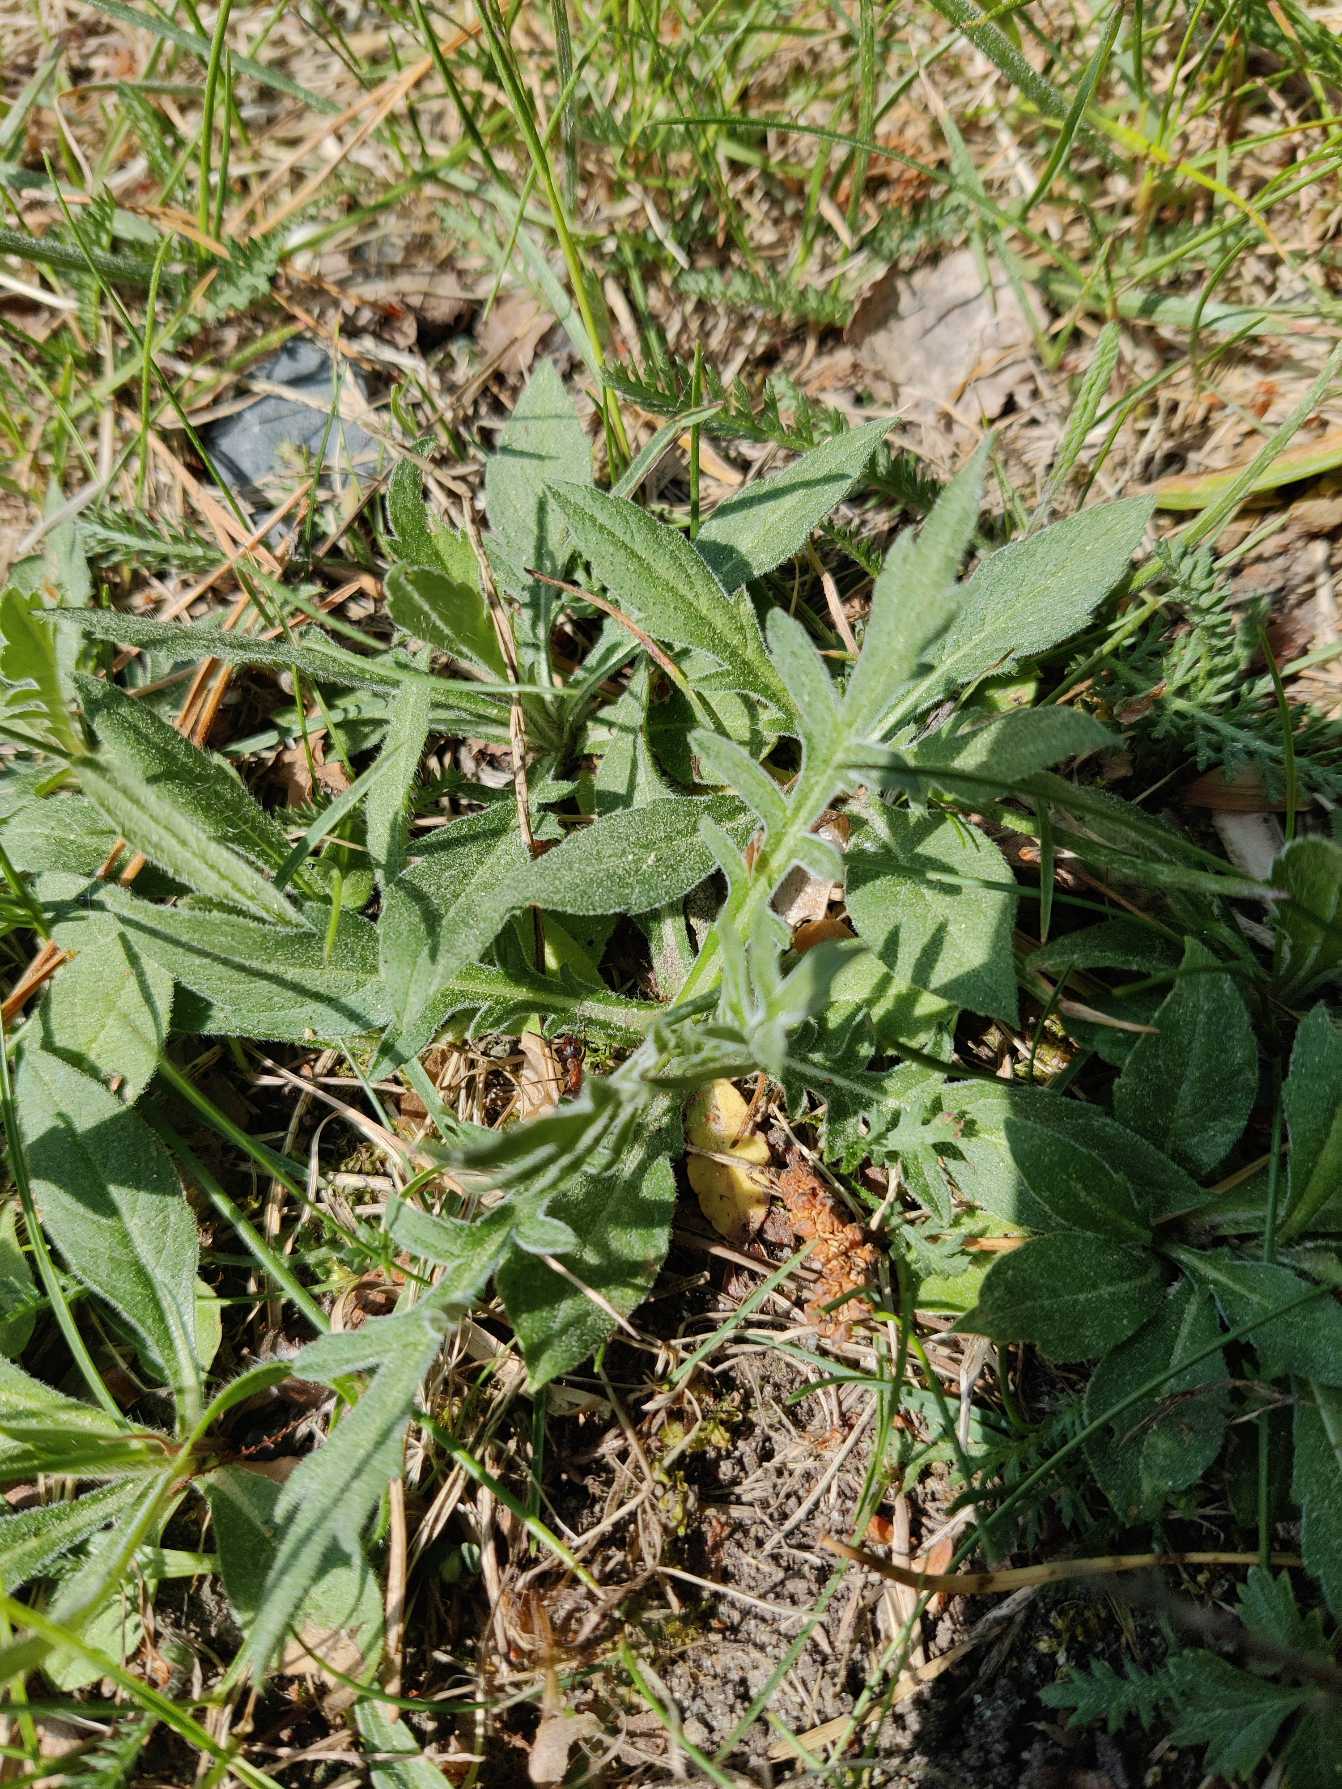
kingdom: Plantae
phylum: Tracheophyta
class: Magnoliopsida
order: Dipsacales
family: Caprifoliaceae
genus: Knautia
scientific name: Knautia arvensis
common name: Blåhat
